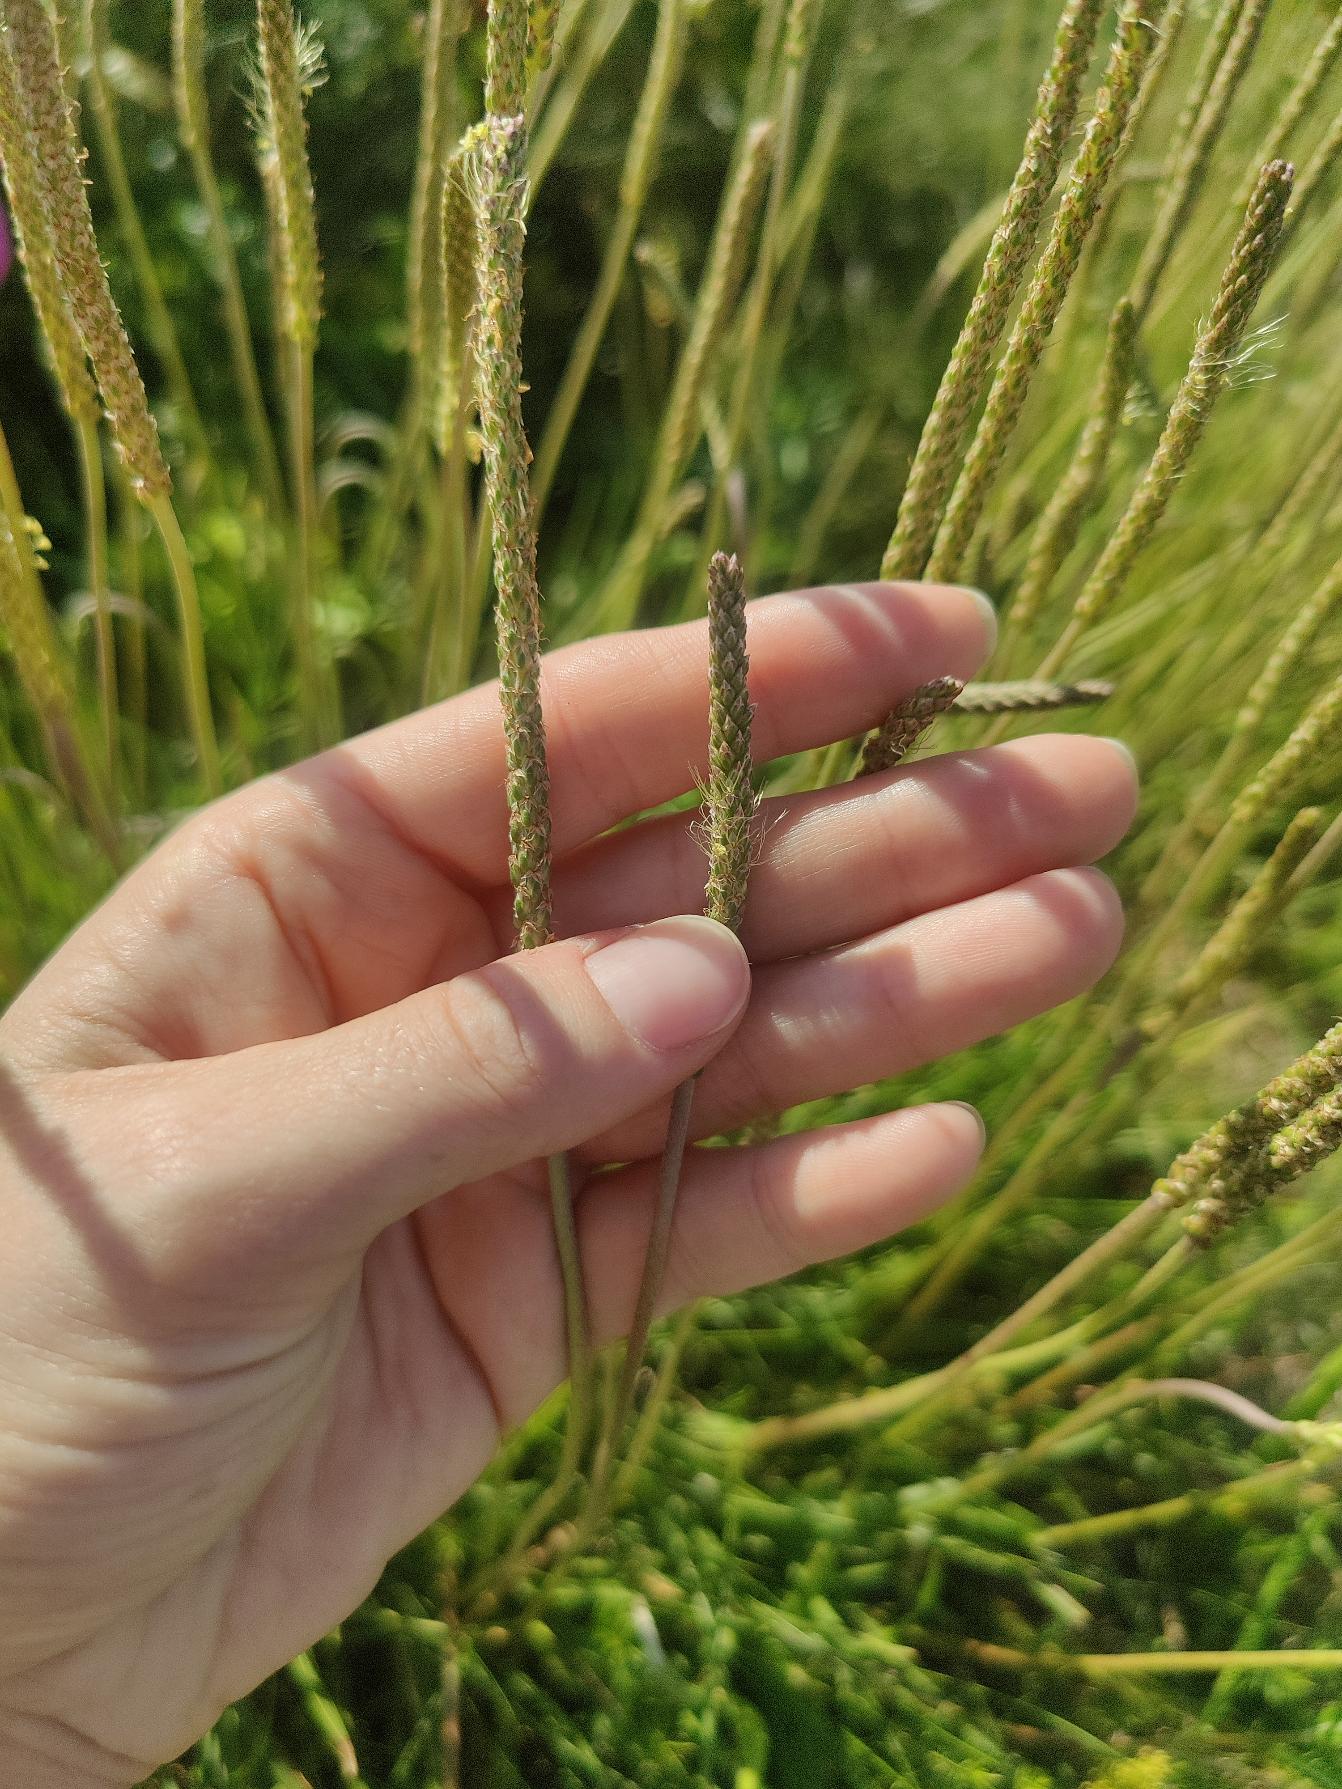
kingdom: Plantae
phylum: Tracheophyta
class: Magnoliopsida
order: Lamiales
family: Plantaginaceae
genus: Plantago
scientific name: Plantago maritima
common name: Strand-vejbred
